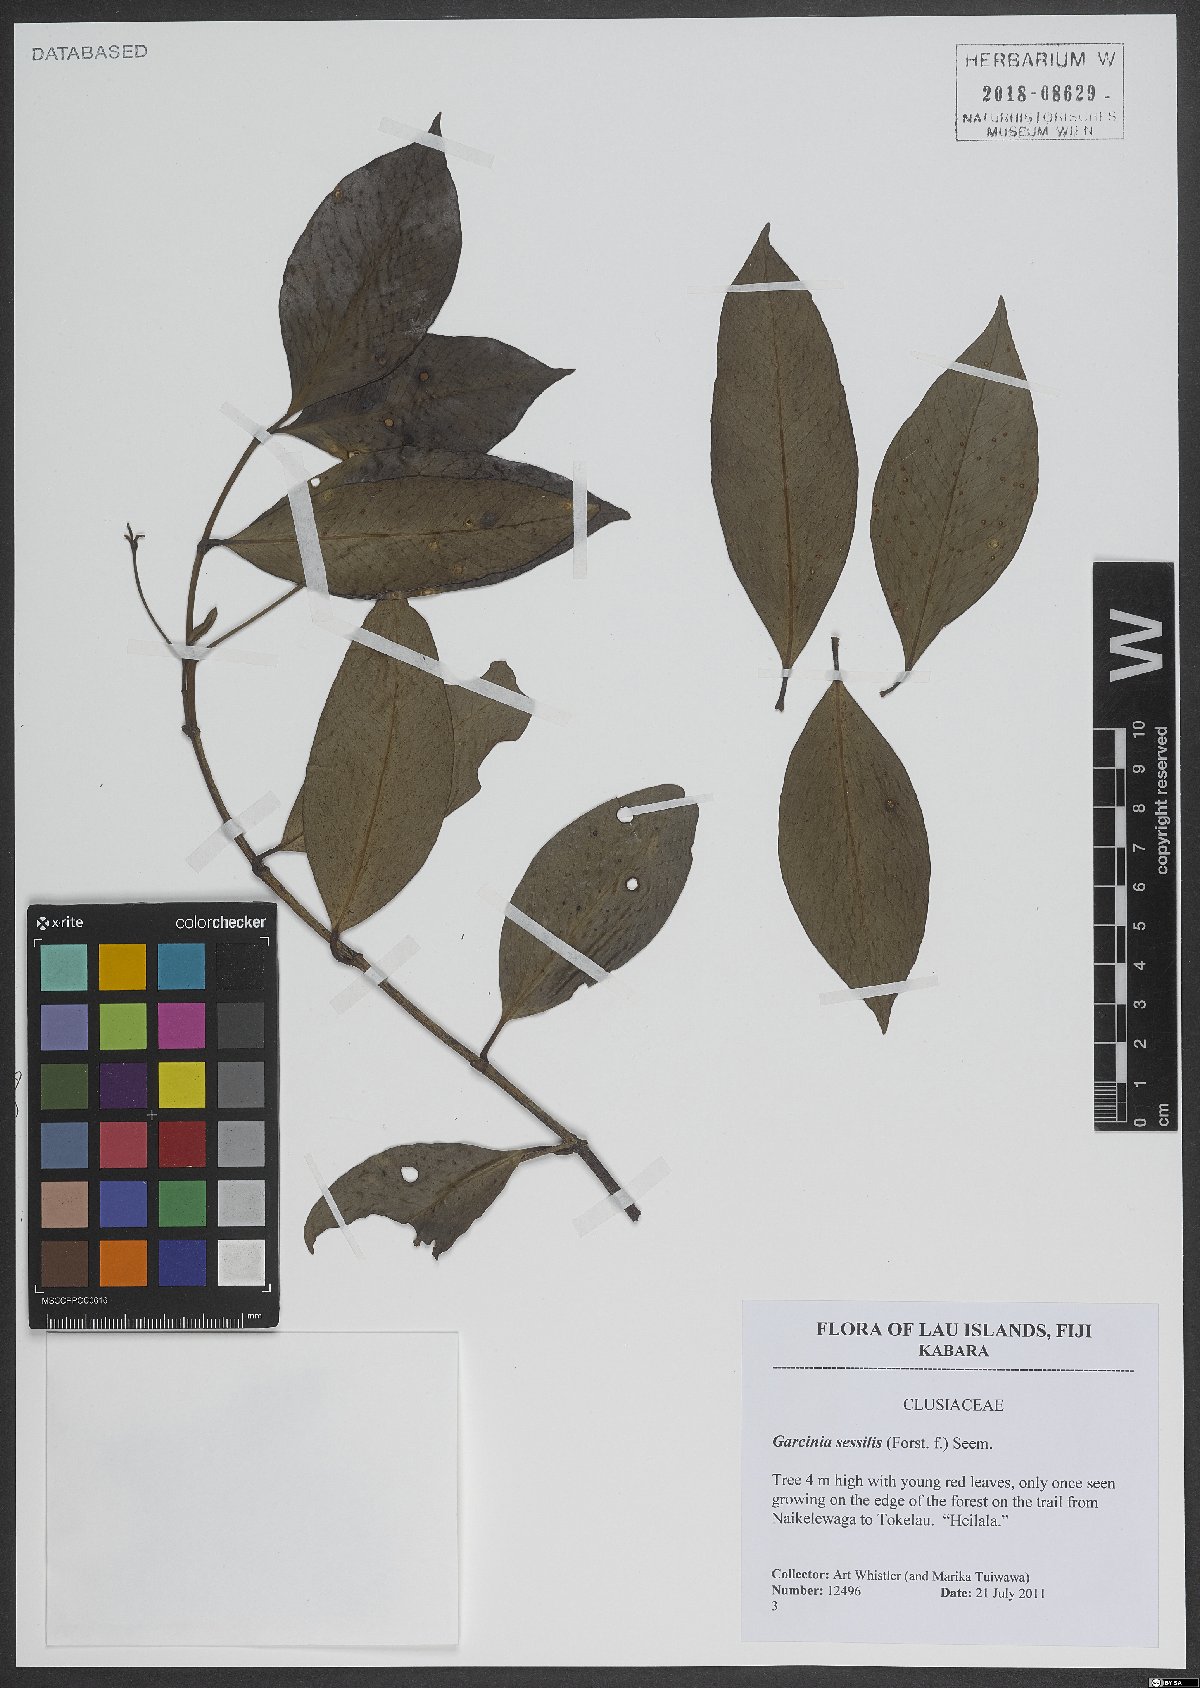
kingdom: Plantae
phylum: Tracheophyta
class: Magnoliopsida
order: Malpighiales
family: Clusiaceae
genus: Garcinia
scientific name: Garcinia sessilis
